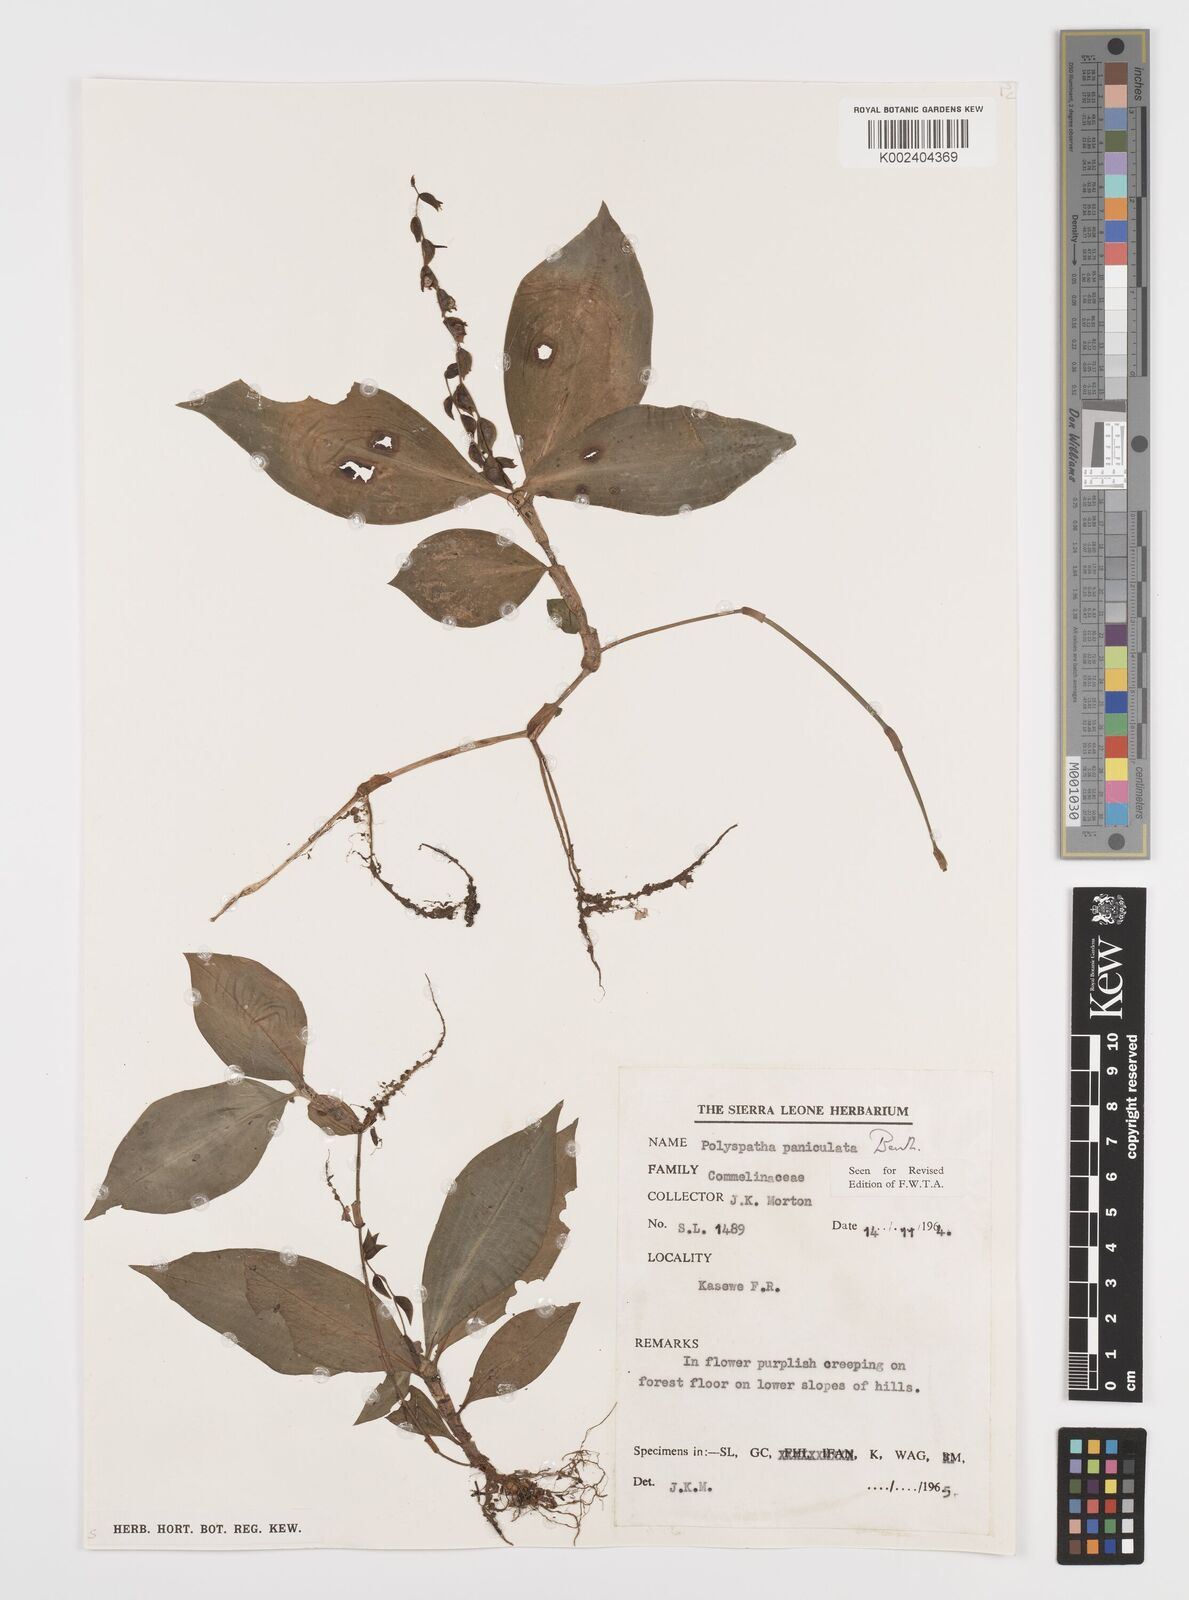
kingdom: Plantae
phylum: Tracheophyta
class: Liliopsida
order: Commelinales
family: Commelinaceae
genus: Polyspatha
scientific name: Polyspatha paniculata
